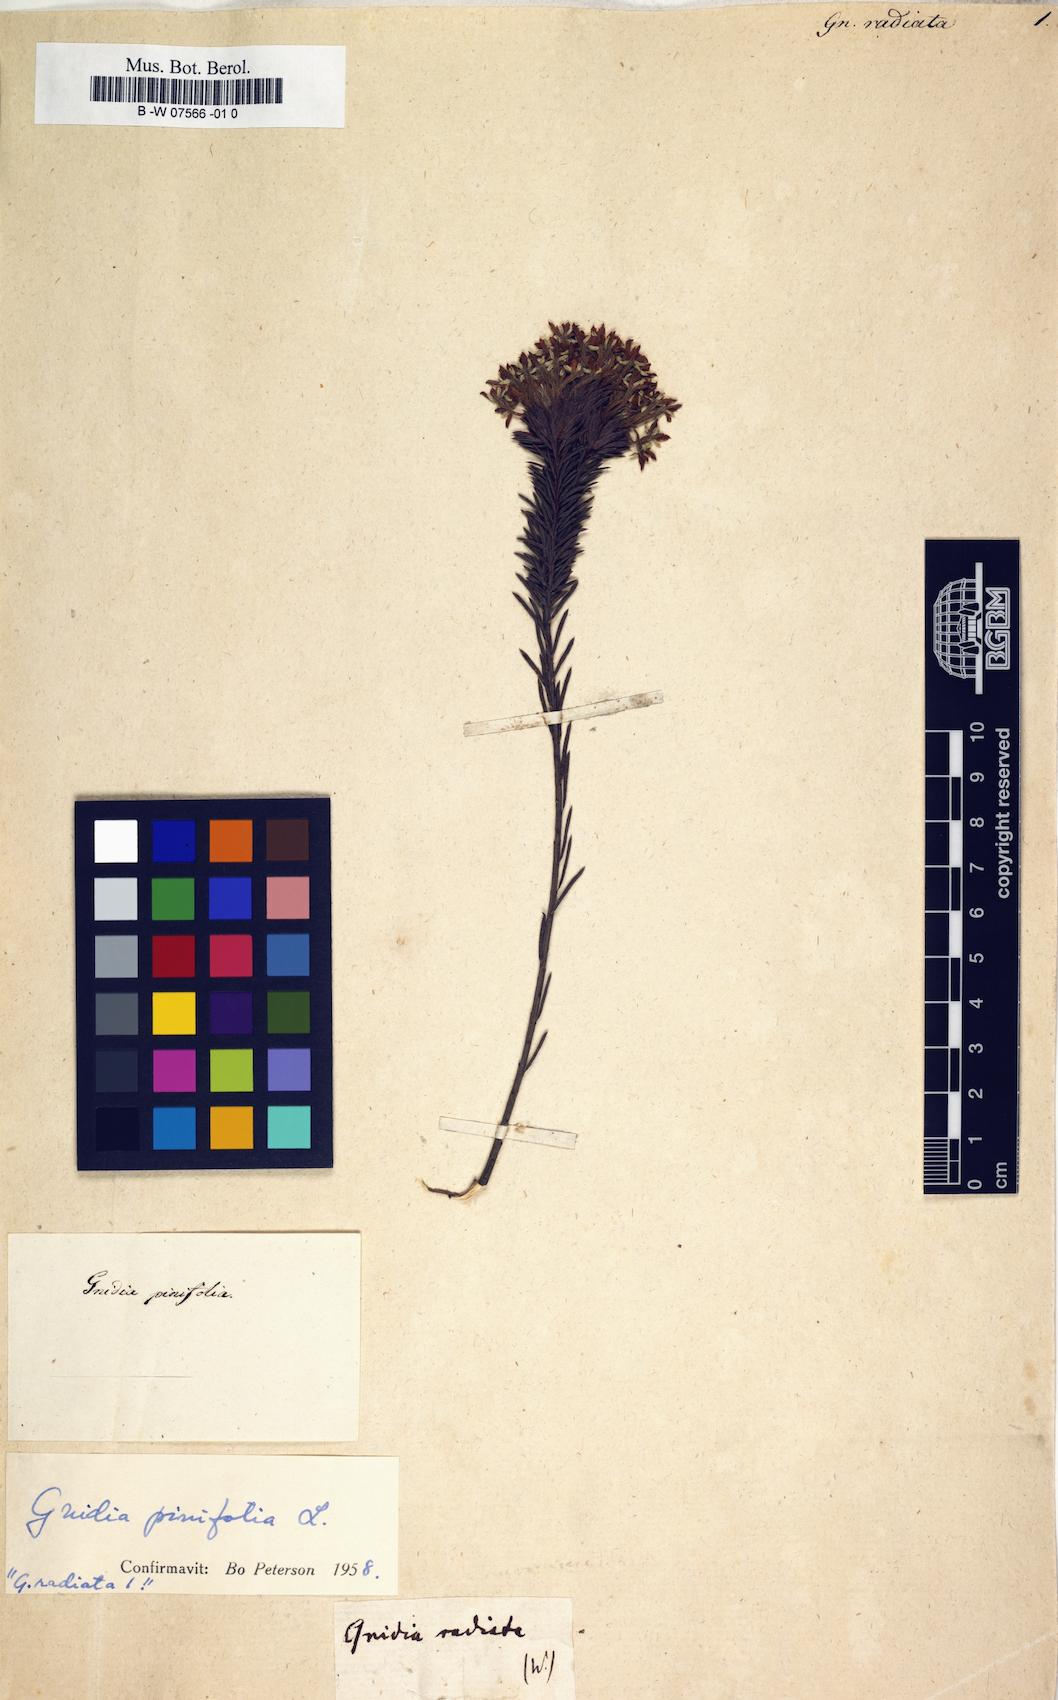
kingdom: Plantae
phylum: Tracheophyta
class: Magnoliopsida
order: Malvales
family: Thymelaeaceae
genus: Gnidia
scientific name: Gnidia pinifolia
